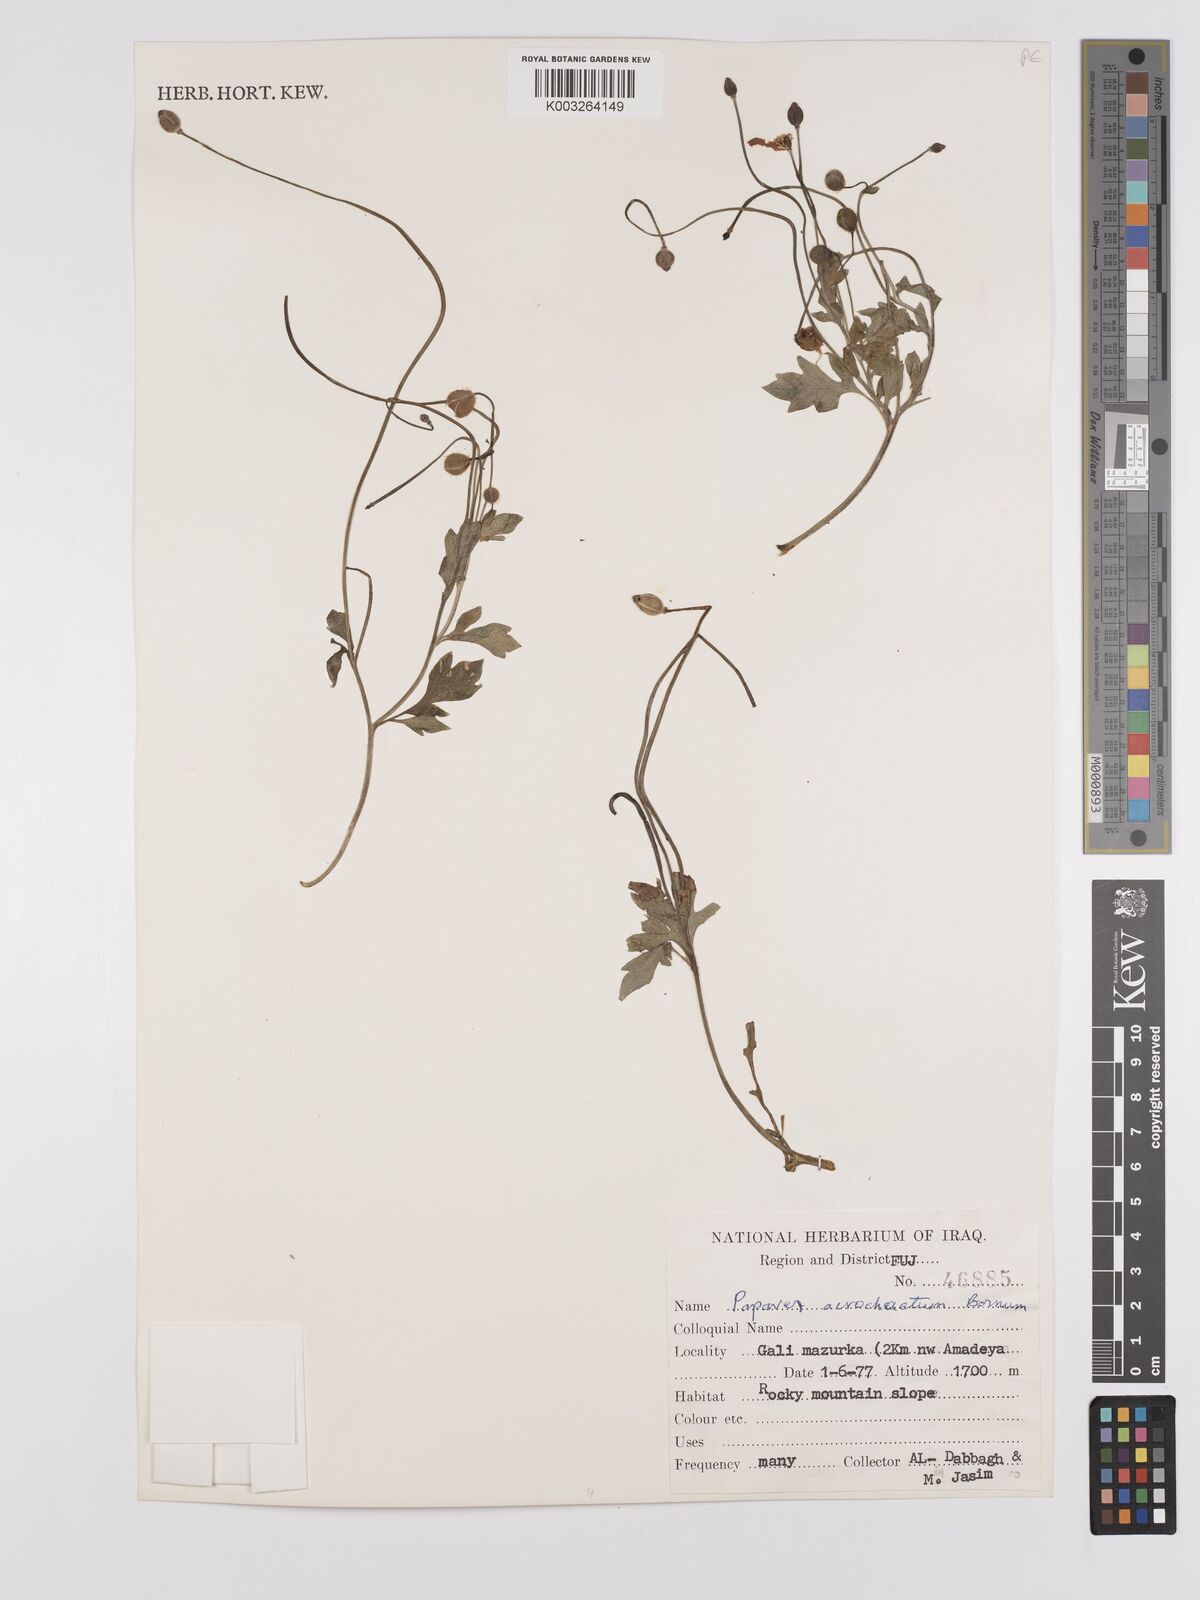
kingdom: Plantae
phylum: Tracheophyta
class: Magnoliopsida
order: Ranunculales
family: Papaveraceae
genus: Papaver
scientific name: Papaver acrochaetum
